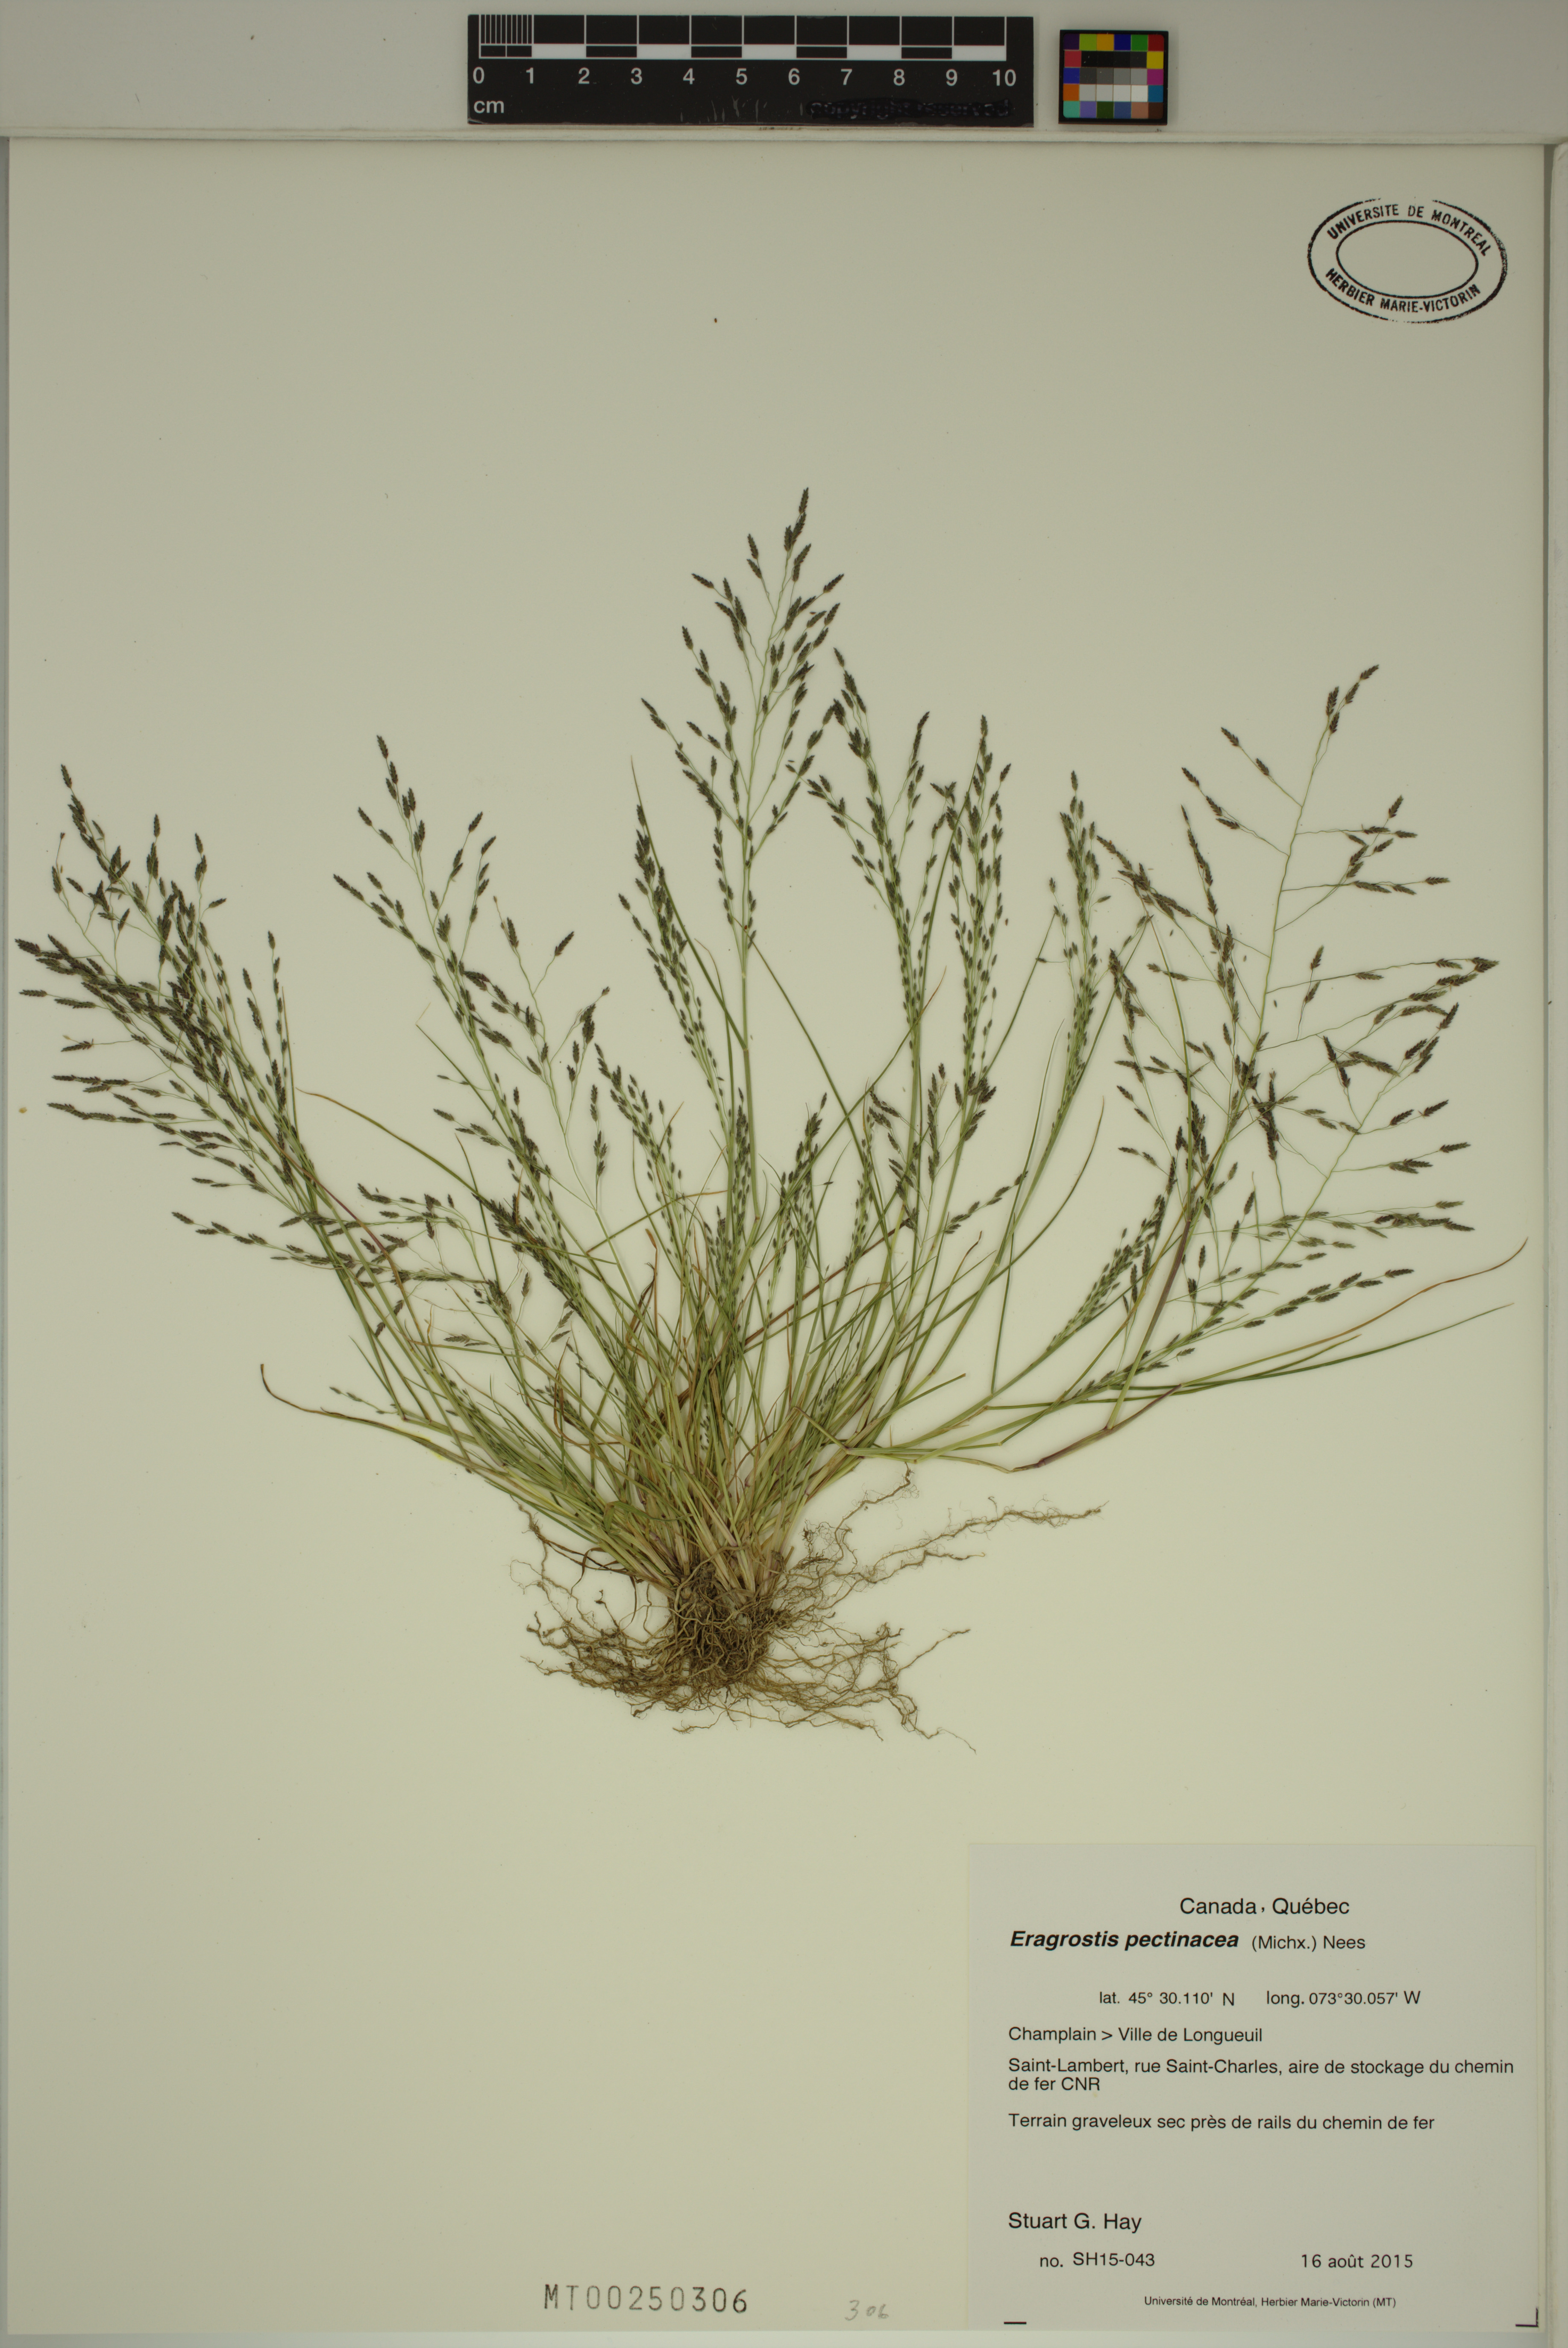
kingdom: Plantae
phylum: Tracheophyta
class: Liliopsida
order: Poales
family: Poaceae
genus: Eragrostis
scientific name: Eragrostis pectinacea
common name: Tufted lovegrass
